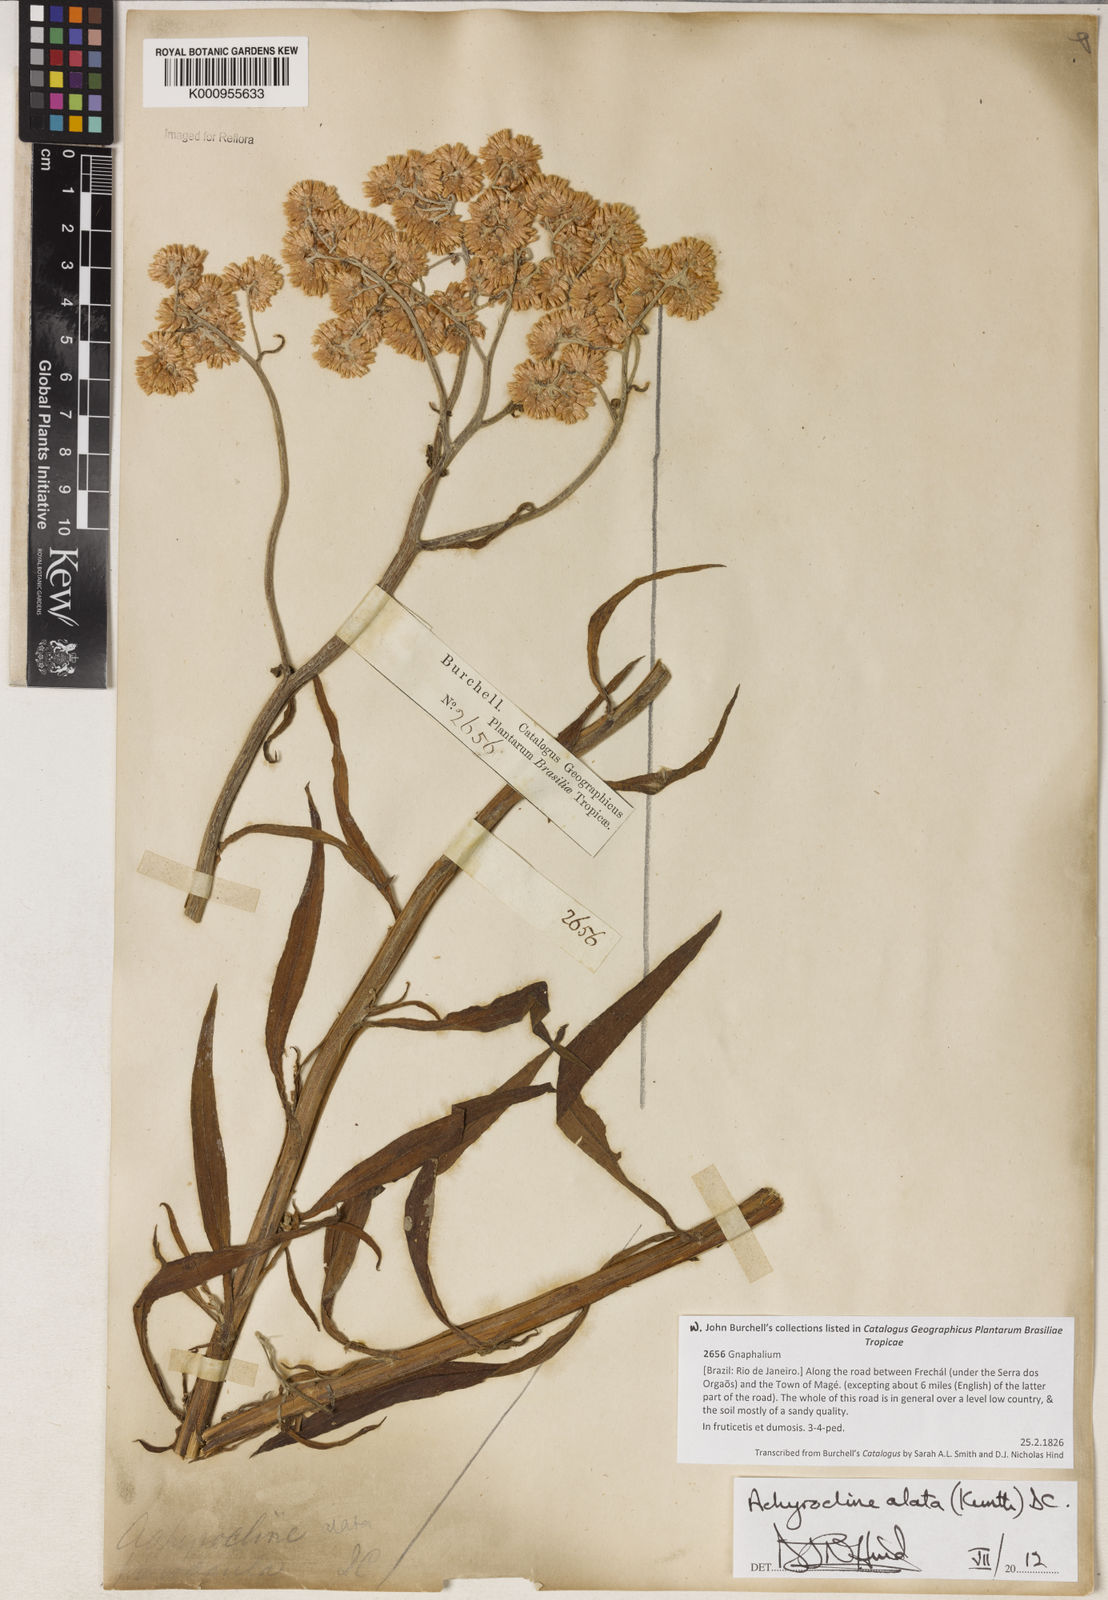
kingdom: Plantae
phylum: Tracheophyta
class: Magnoliopsida
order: Asterales
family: Asteraceae
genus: Achyrocline
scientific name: Achyrocline alata
